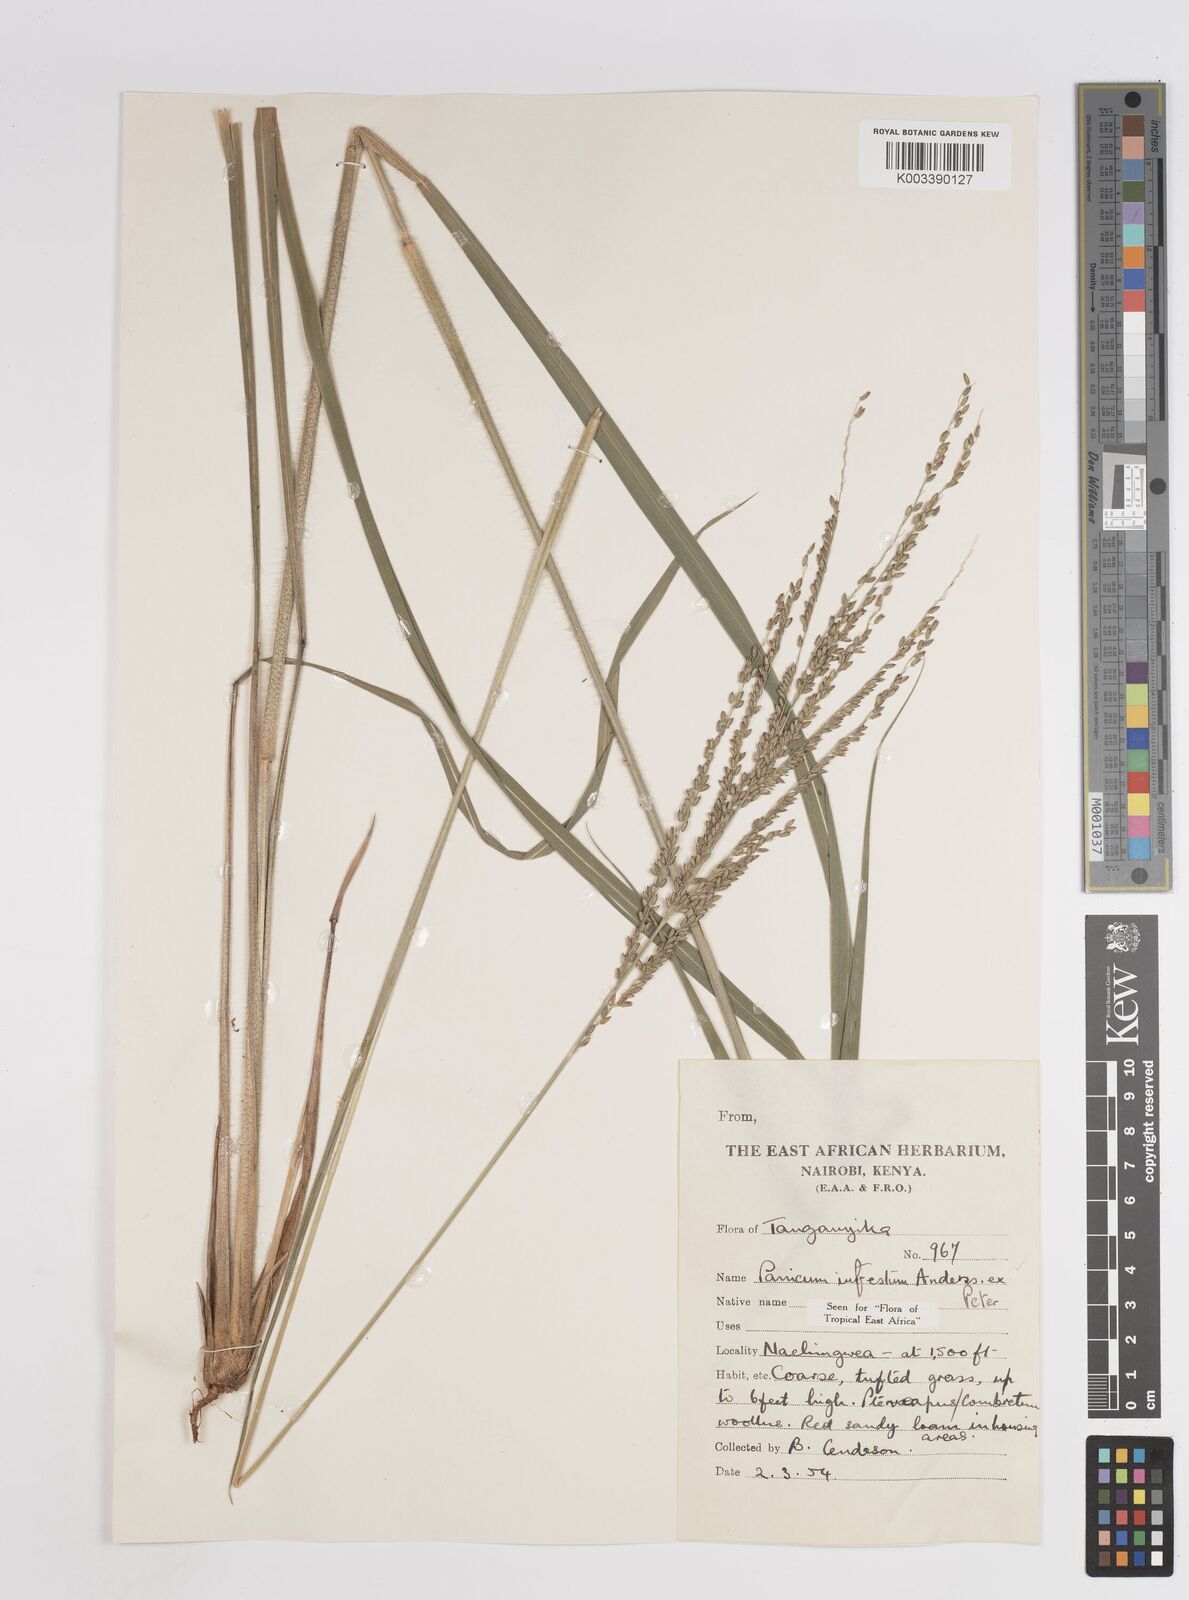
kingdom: Plantae
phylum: Tracheophyta
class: Liliopsida
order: Poales
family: Poaceae
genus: Megathyrsus
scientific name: Megathyrsus infestus
